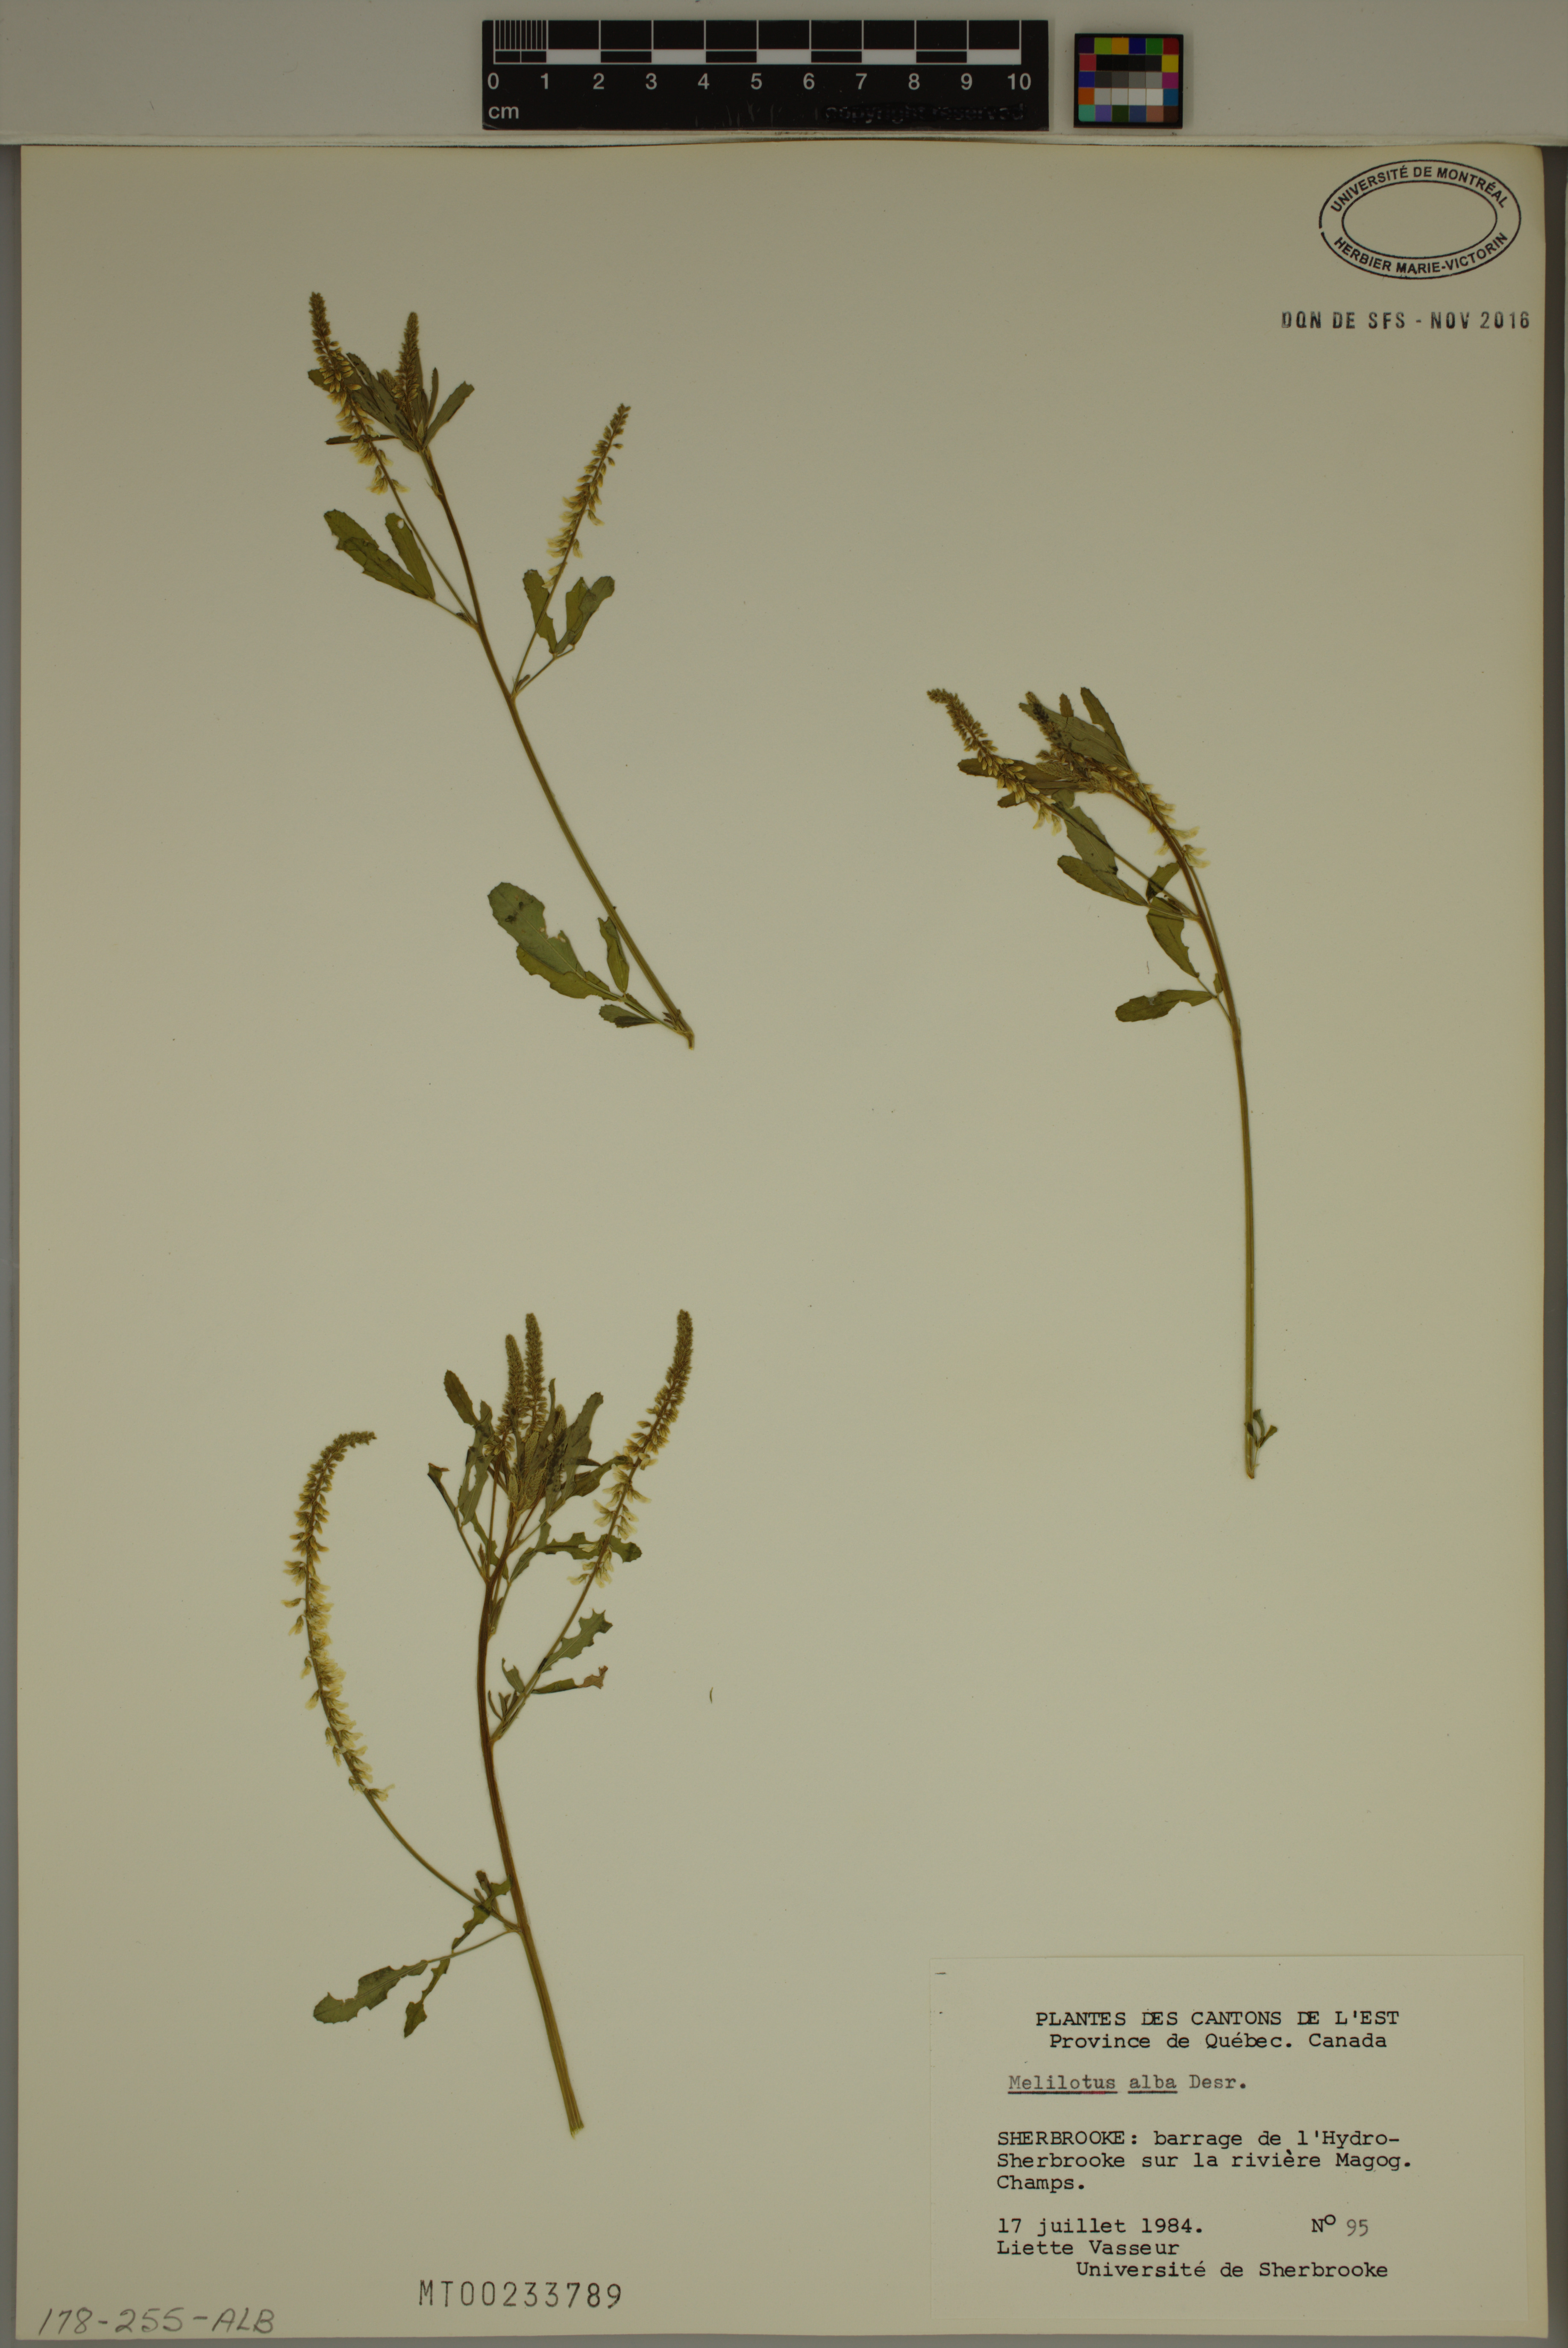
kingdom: Plantae
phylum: Tracheophyta
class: Magnoliopsida
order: Fabales
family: Fabaceae
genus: Melilotus
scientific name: Melilotus albus
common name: White melilot
